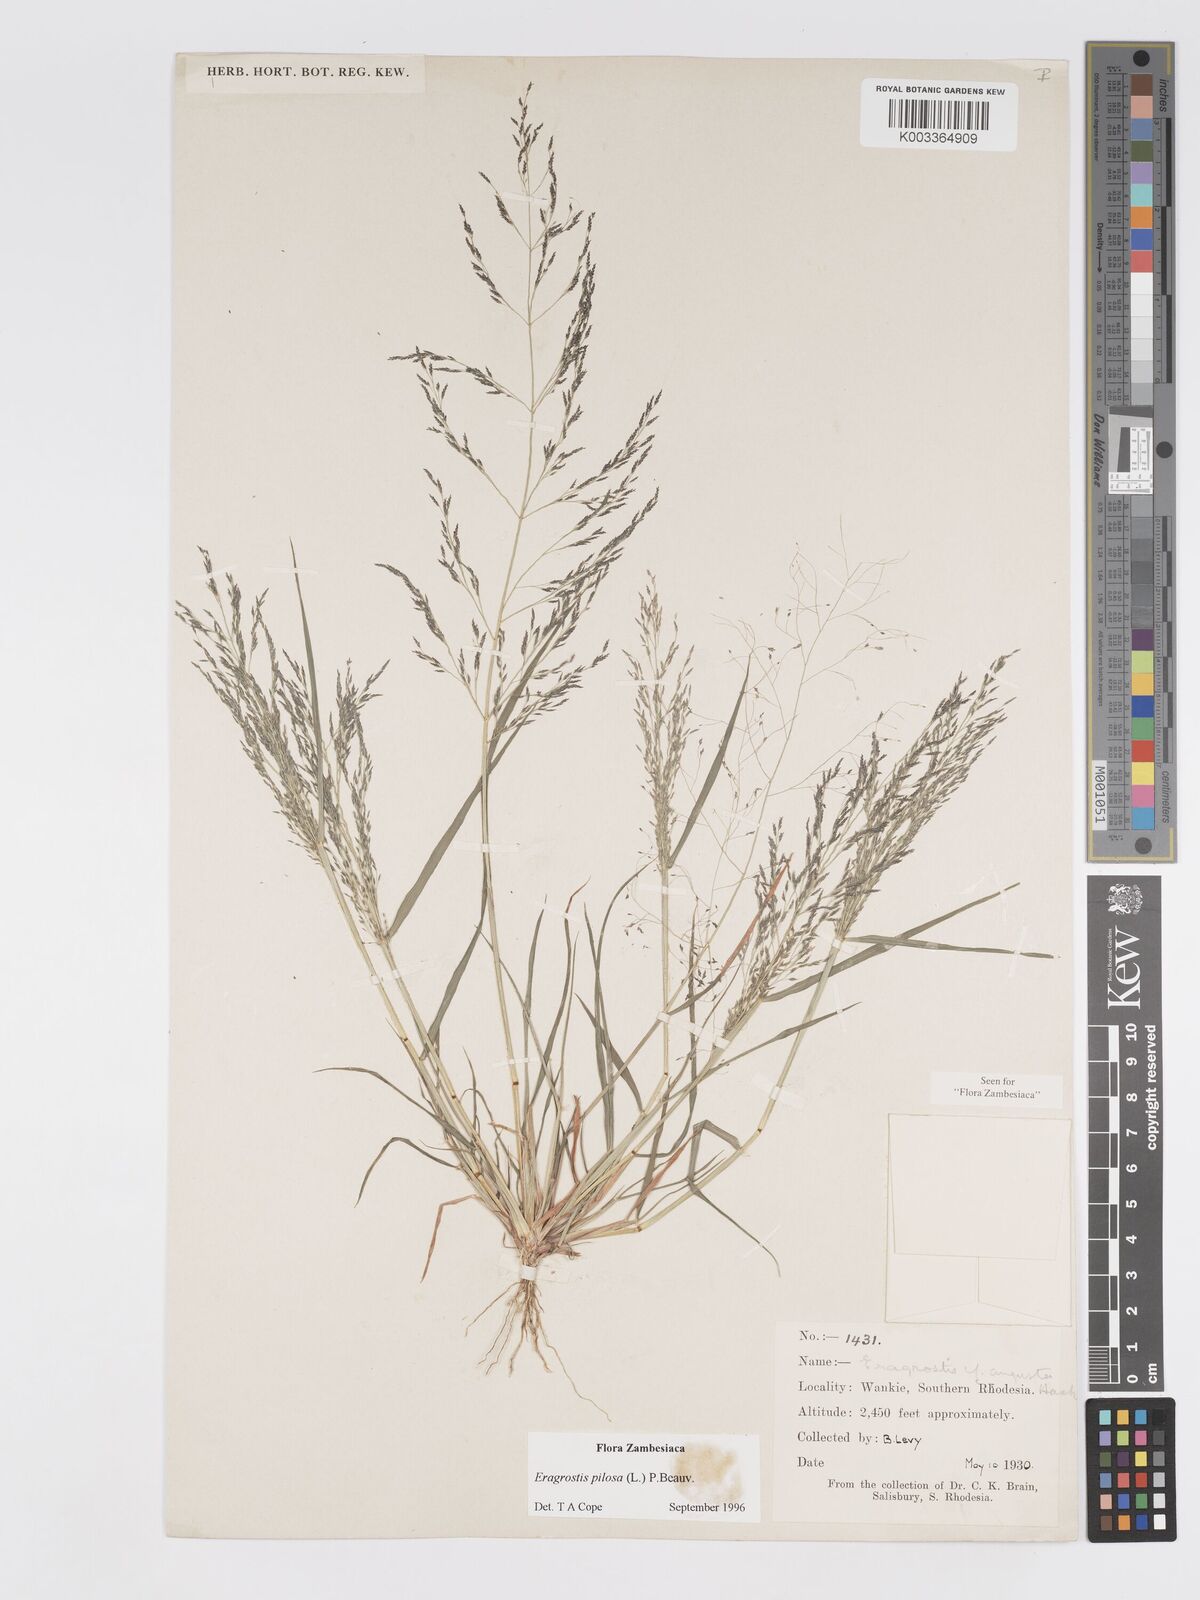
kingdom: Plantae
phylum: Tracheophyta
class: Liliopsida
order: Poales
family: Poaceae
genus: Eragrostis
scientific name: Eragrostis pilosa
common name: Indian lovegrass
